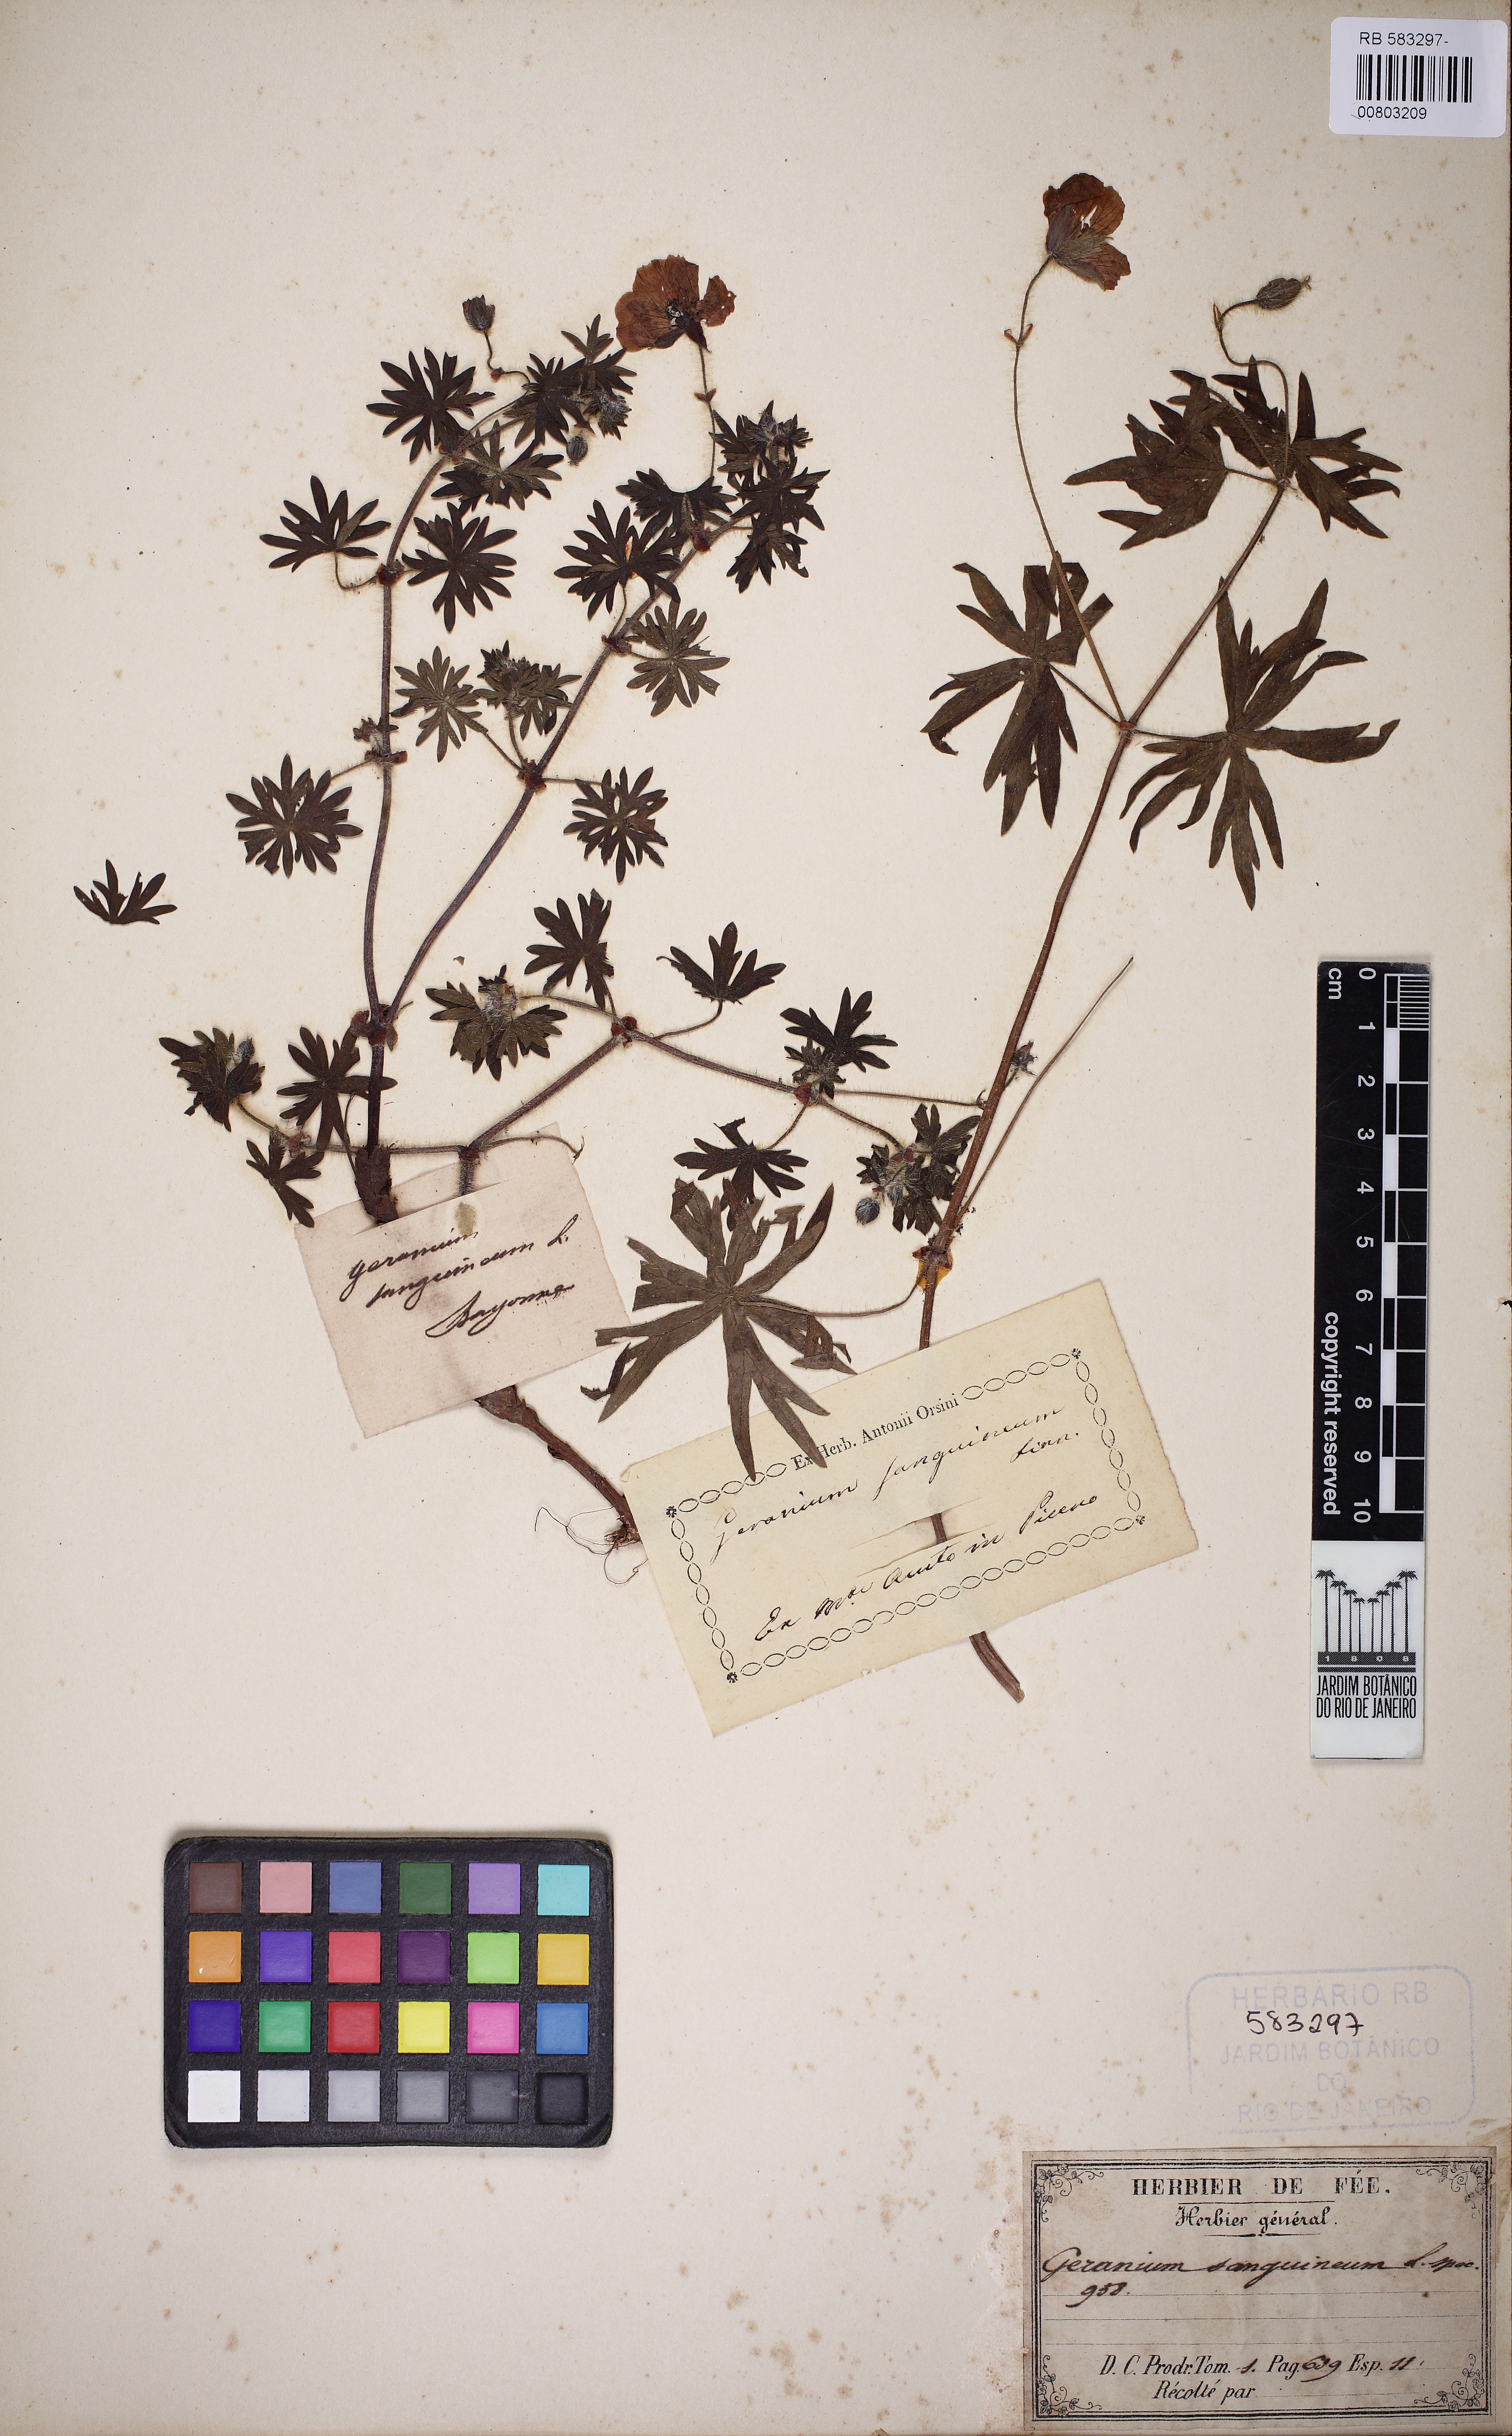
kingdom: Plantae
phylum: Tracheophyta
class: Magnoliopsida
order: Geraniales
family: Geraniaceae
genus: Geranium
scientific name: Geranium sanguineum
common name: Bloody crane's-bill
